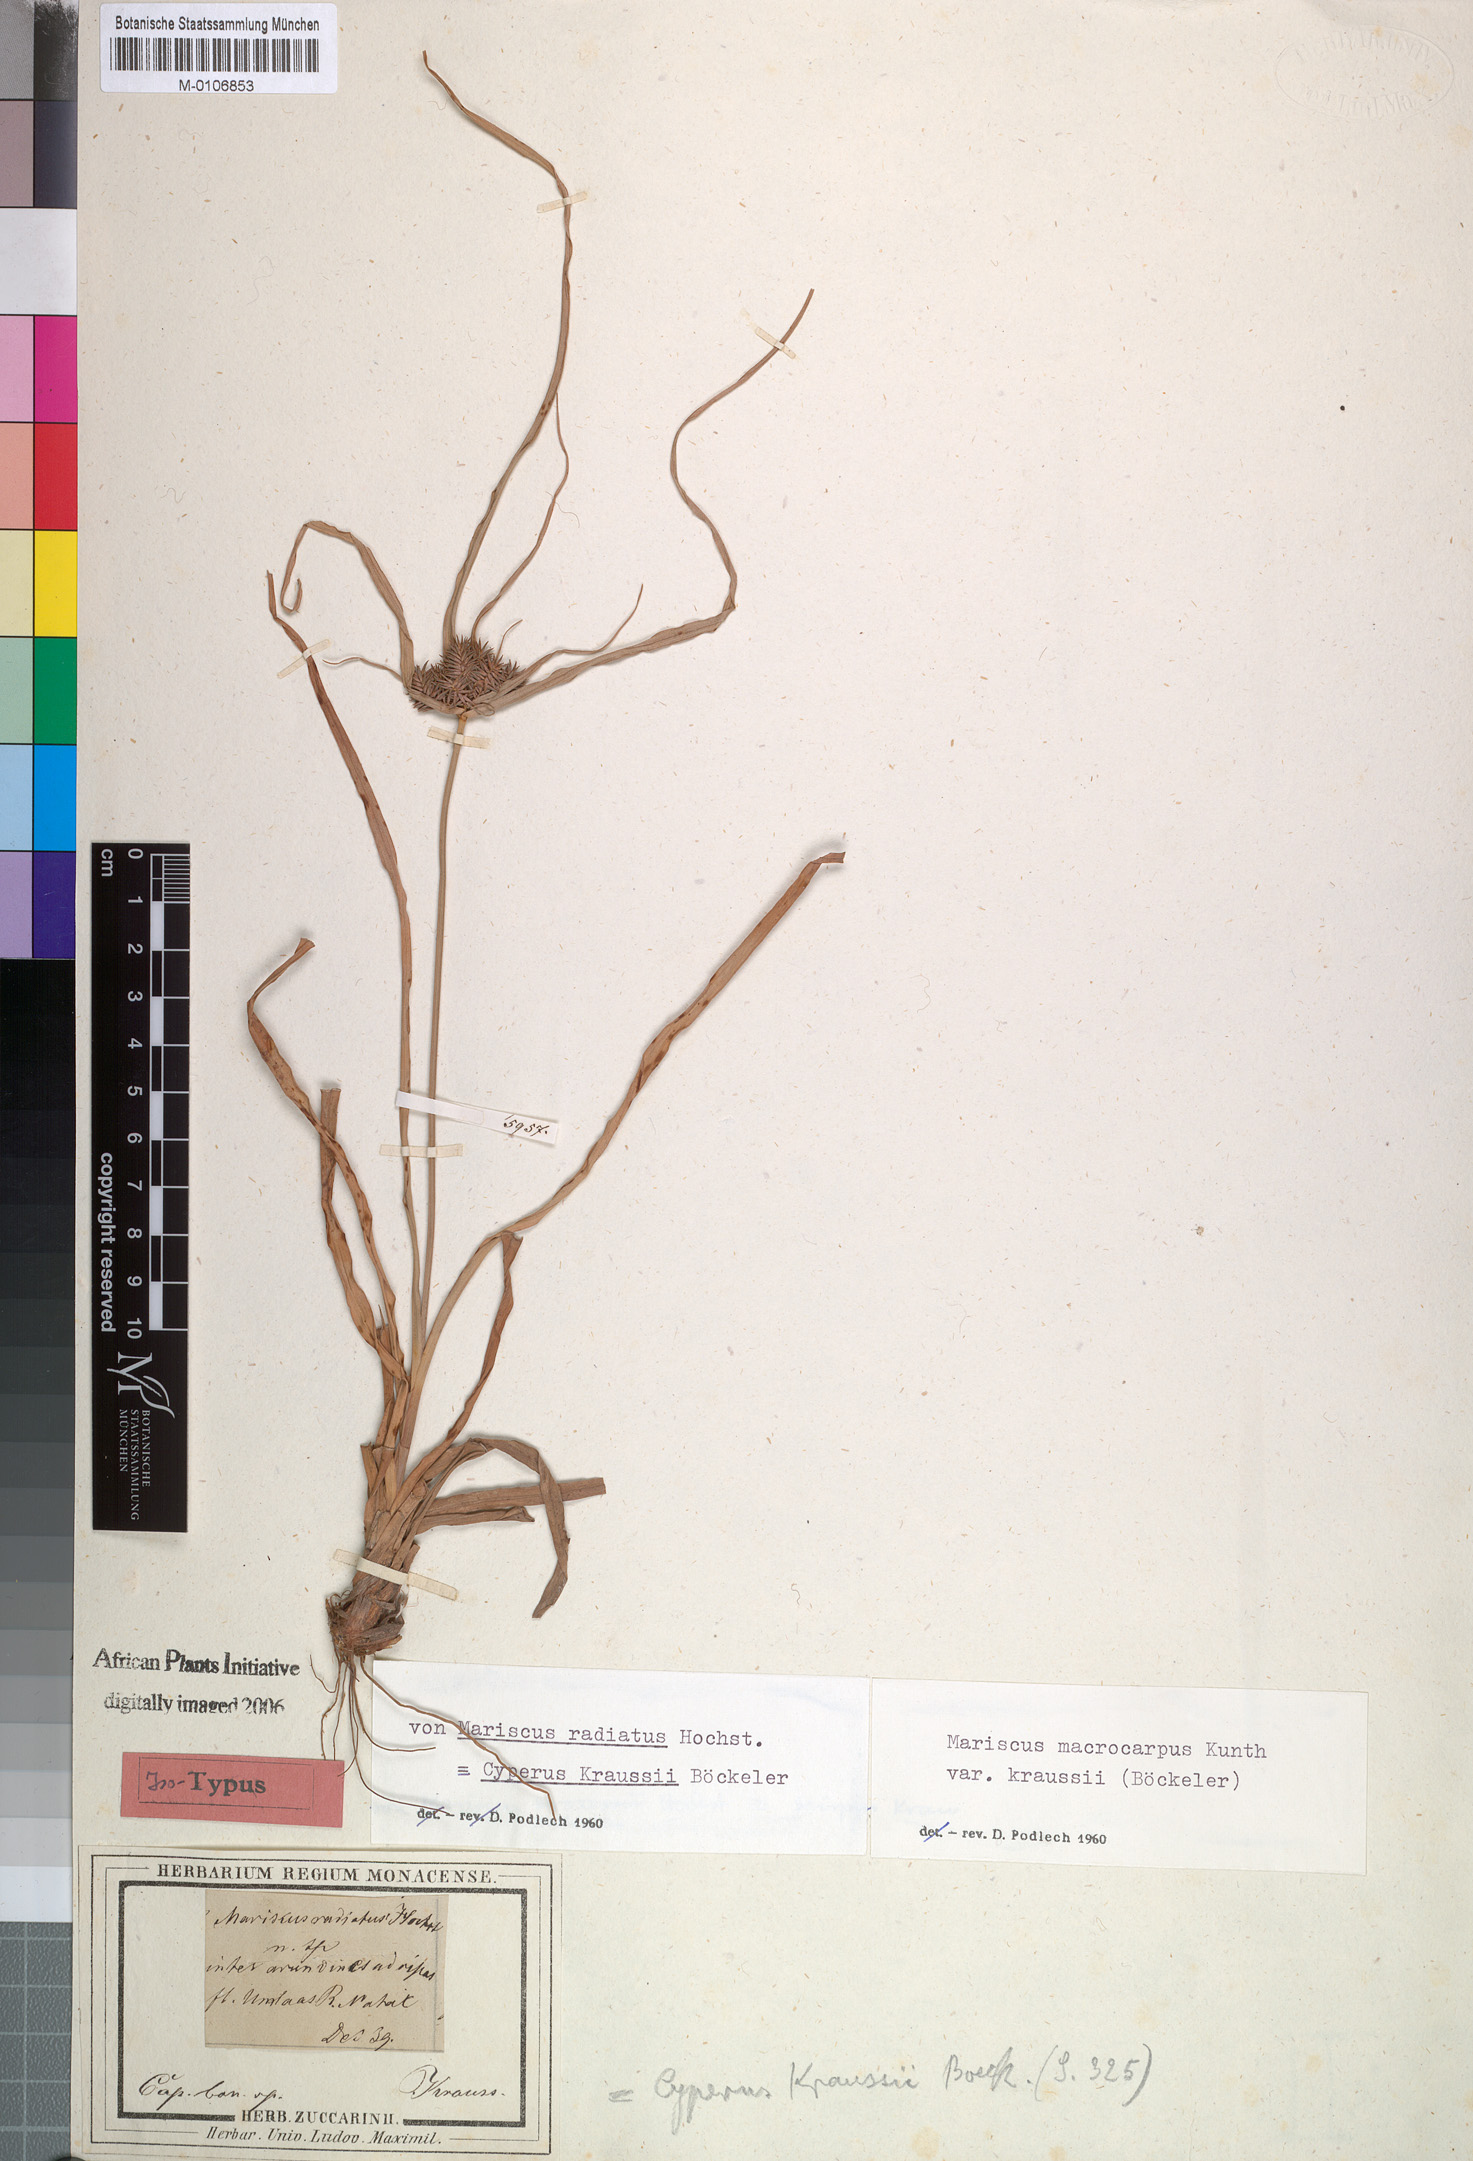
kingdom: Plantae
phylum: Tracheophyta
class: Liliopsida
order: Poales
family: Cyperaceae
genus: Cyperus
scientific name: Cyperus macrocarpus
